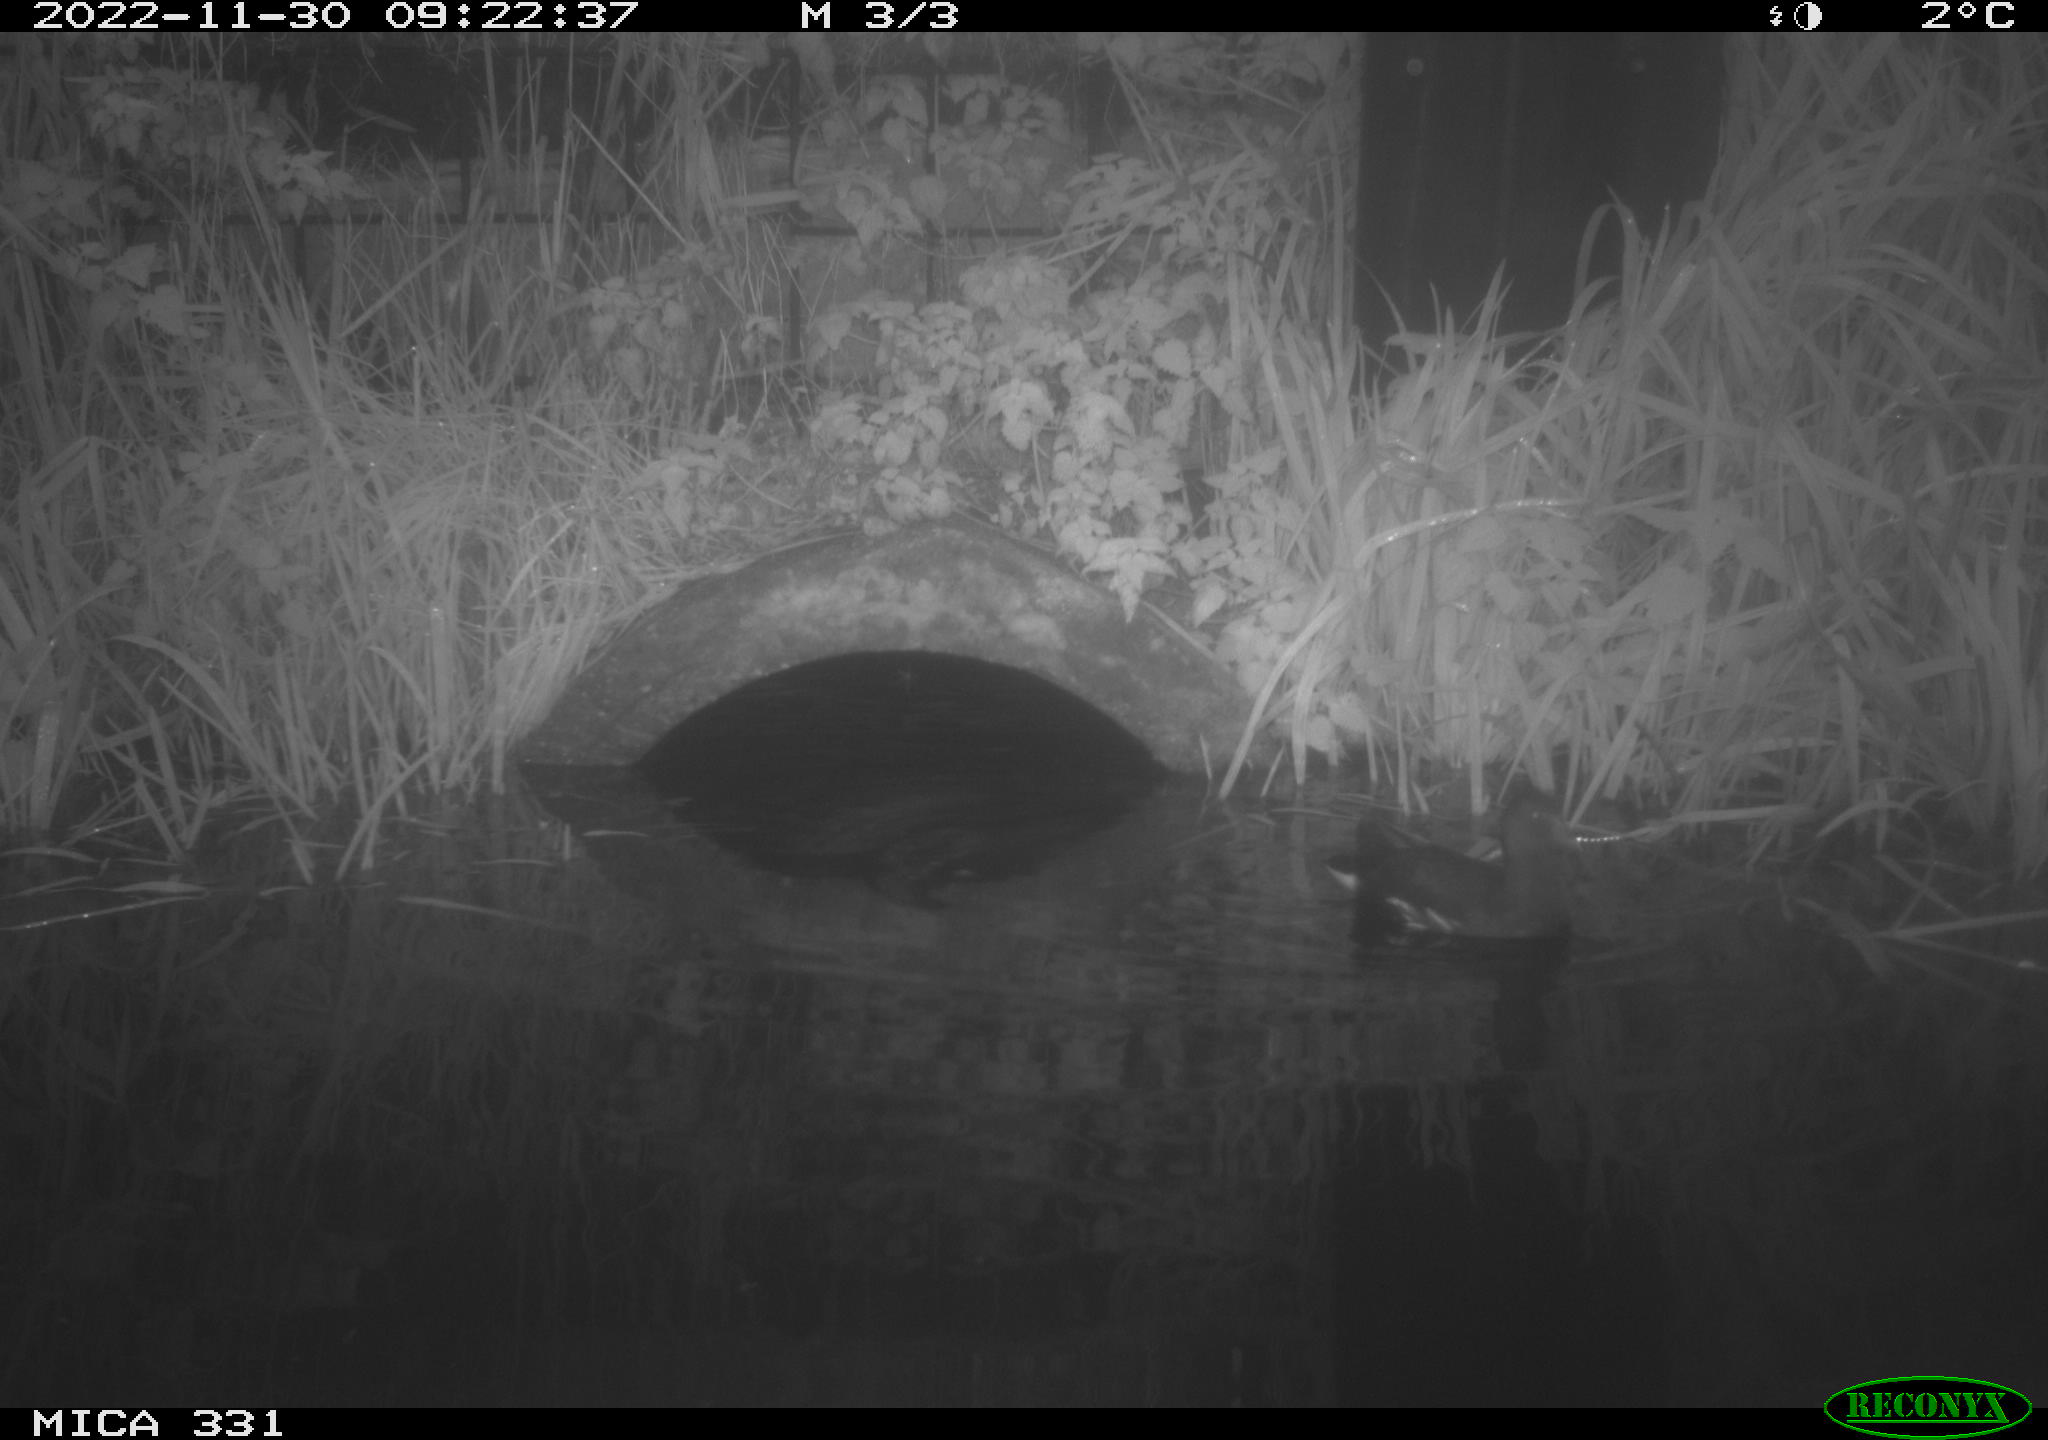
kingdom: Animalia
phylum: Chordata
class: Aves
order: Gruiformes
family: Rallidae
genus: Gallinula
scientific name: Gallinula chloropus
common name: Common moorhen
